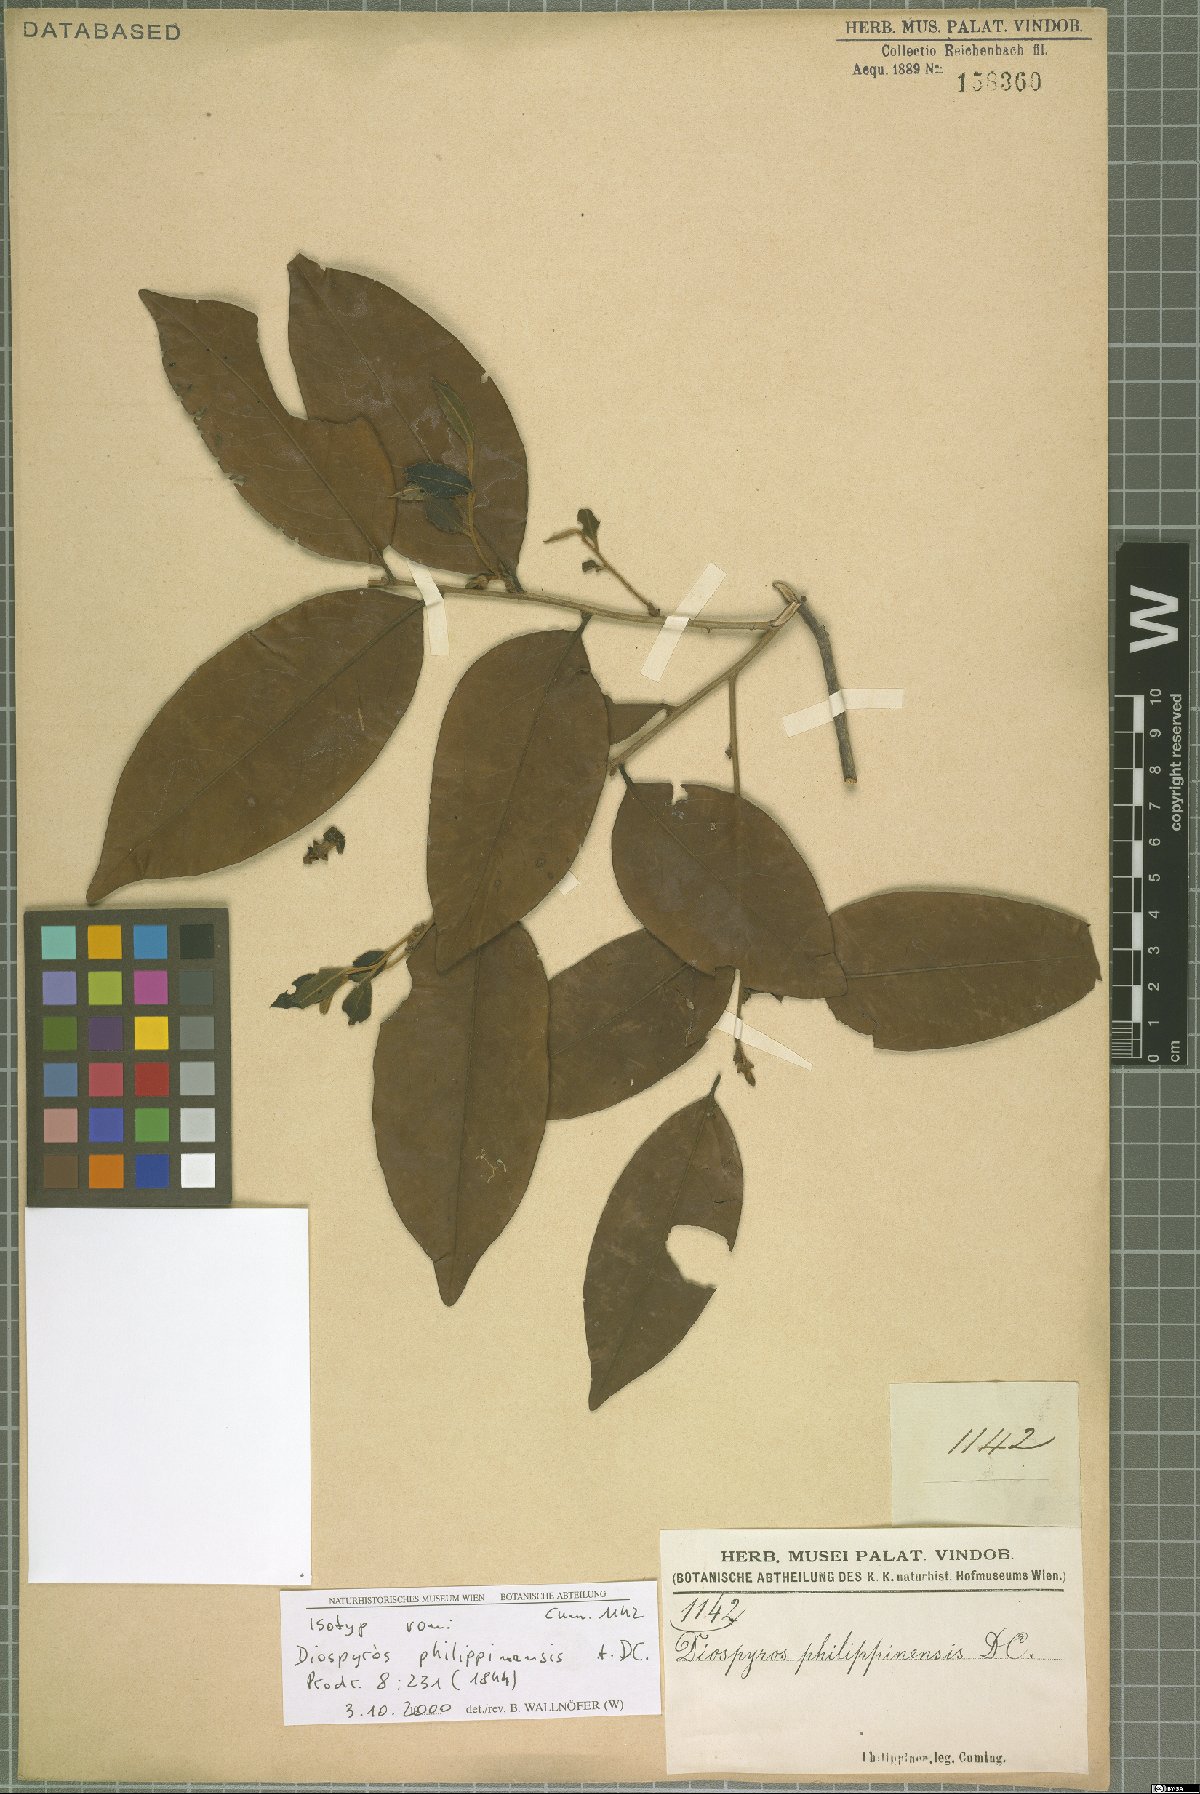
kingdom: Plantae
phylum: Tracheophyta
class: Magnoliopsida
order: Ericales
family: Ebenaceae
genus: Diospyros
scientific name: Diospyros philippinensis
